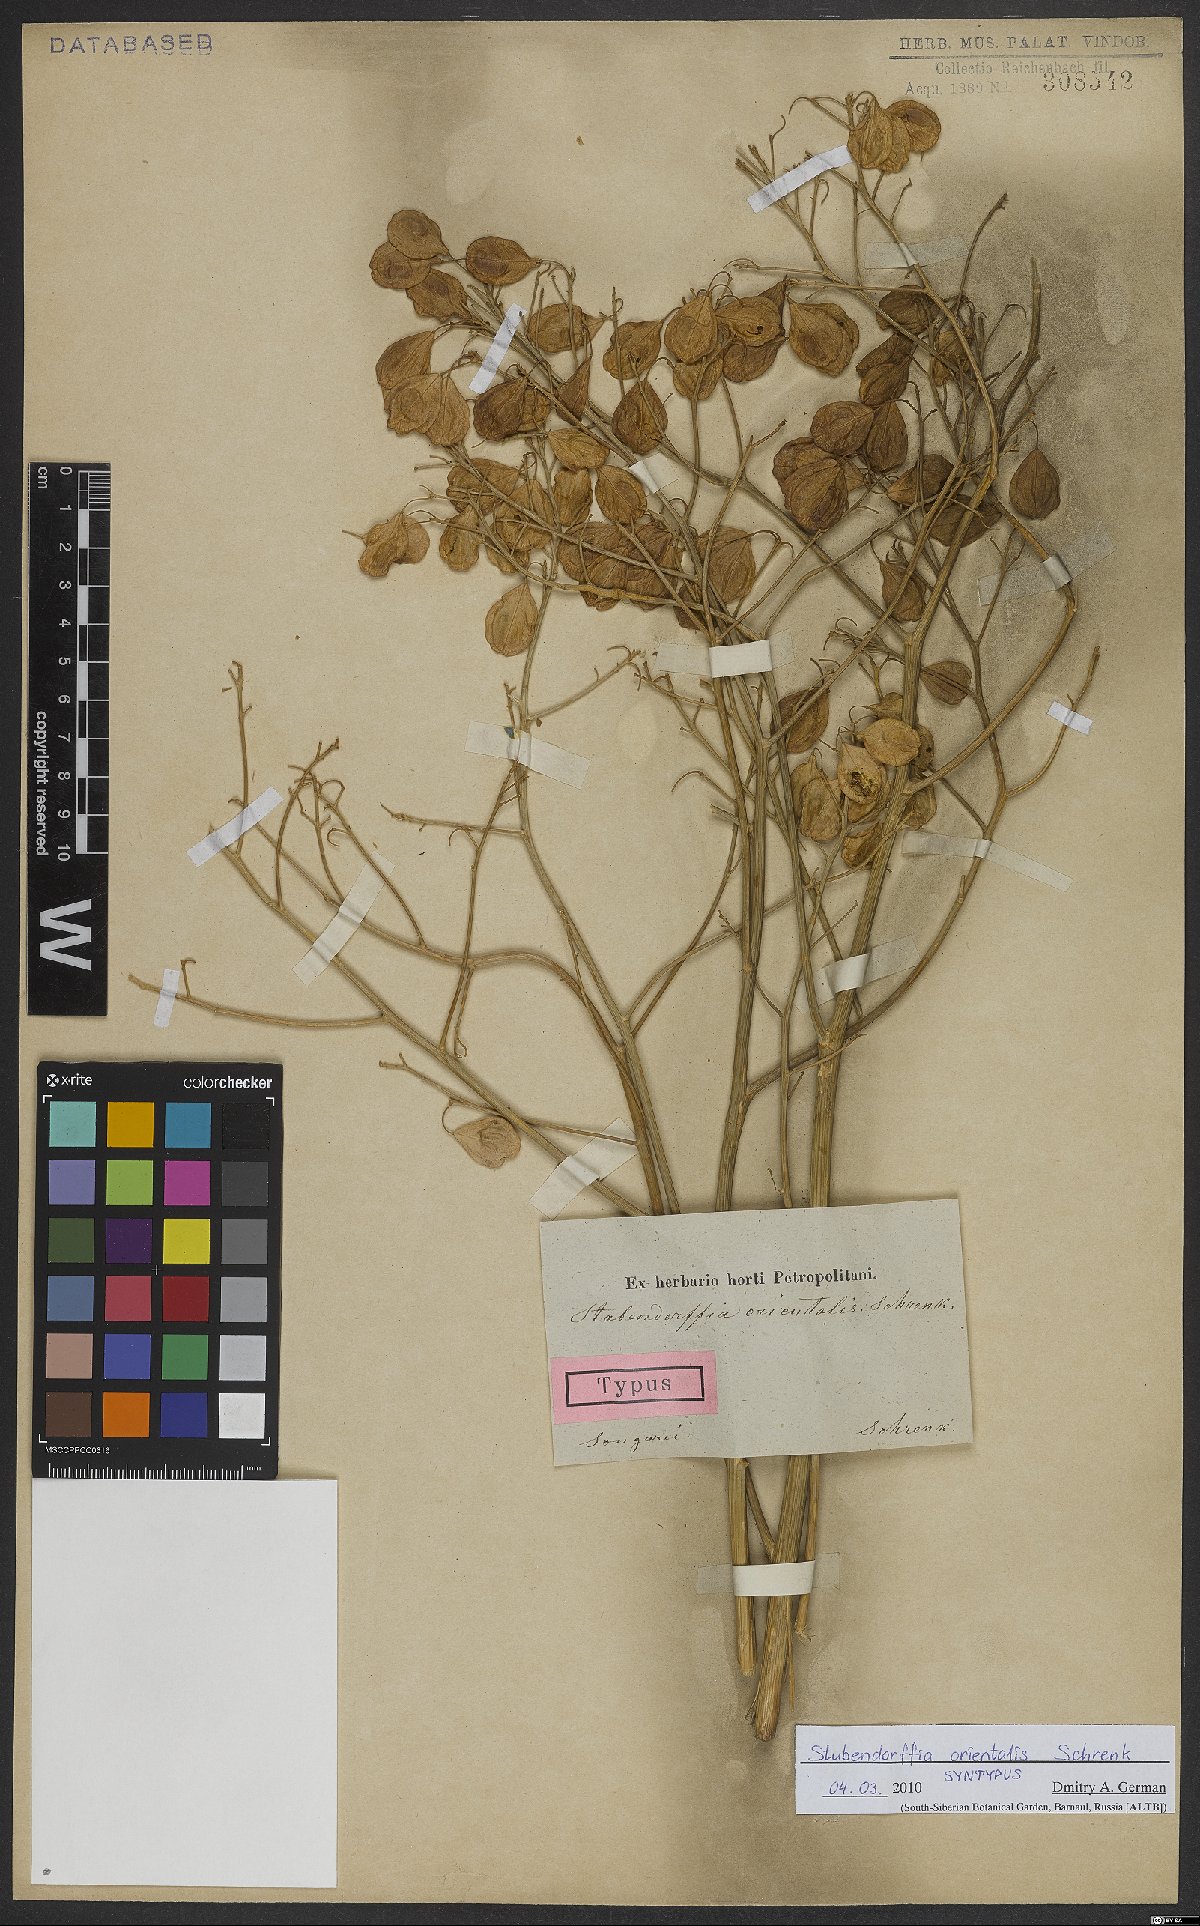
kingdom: Plantae
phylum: Tracheophyta
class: Magnoliopsida
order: Brassicales
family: Brassicaceae
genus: Lepidium
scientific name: Lepidium orientale
